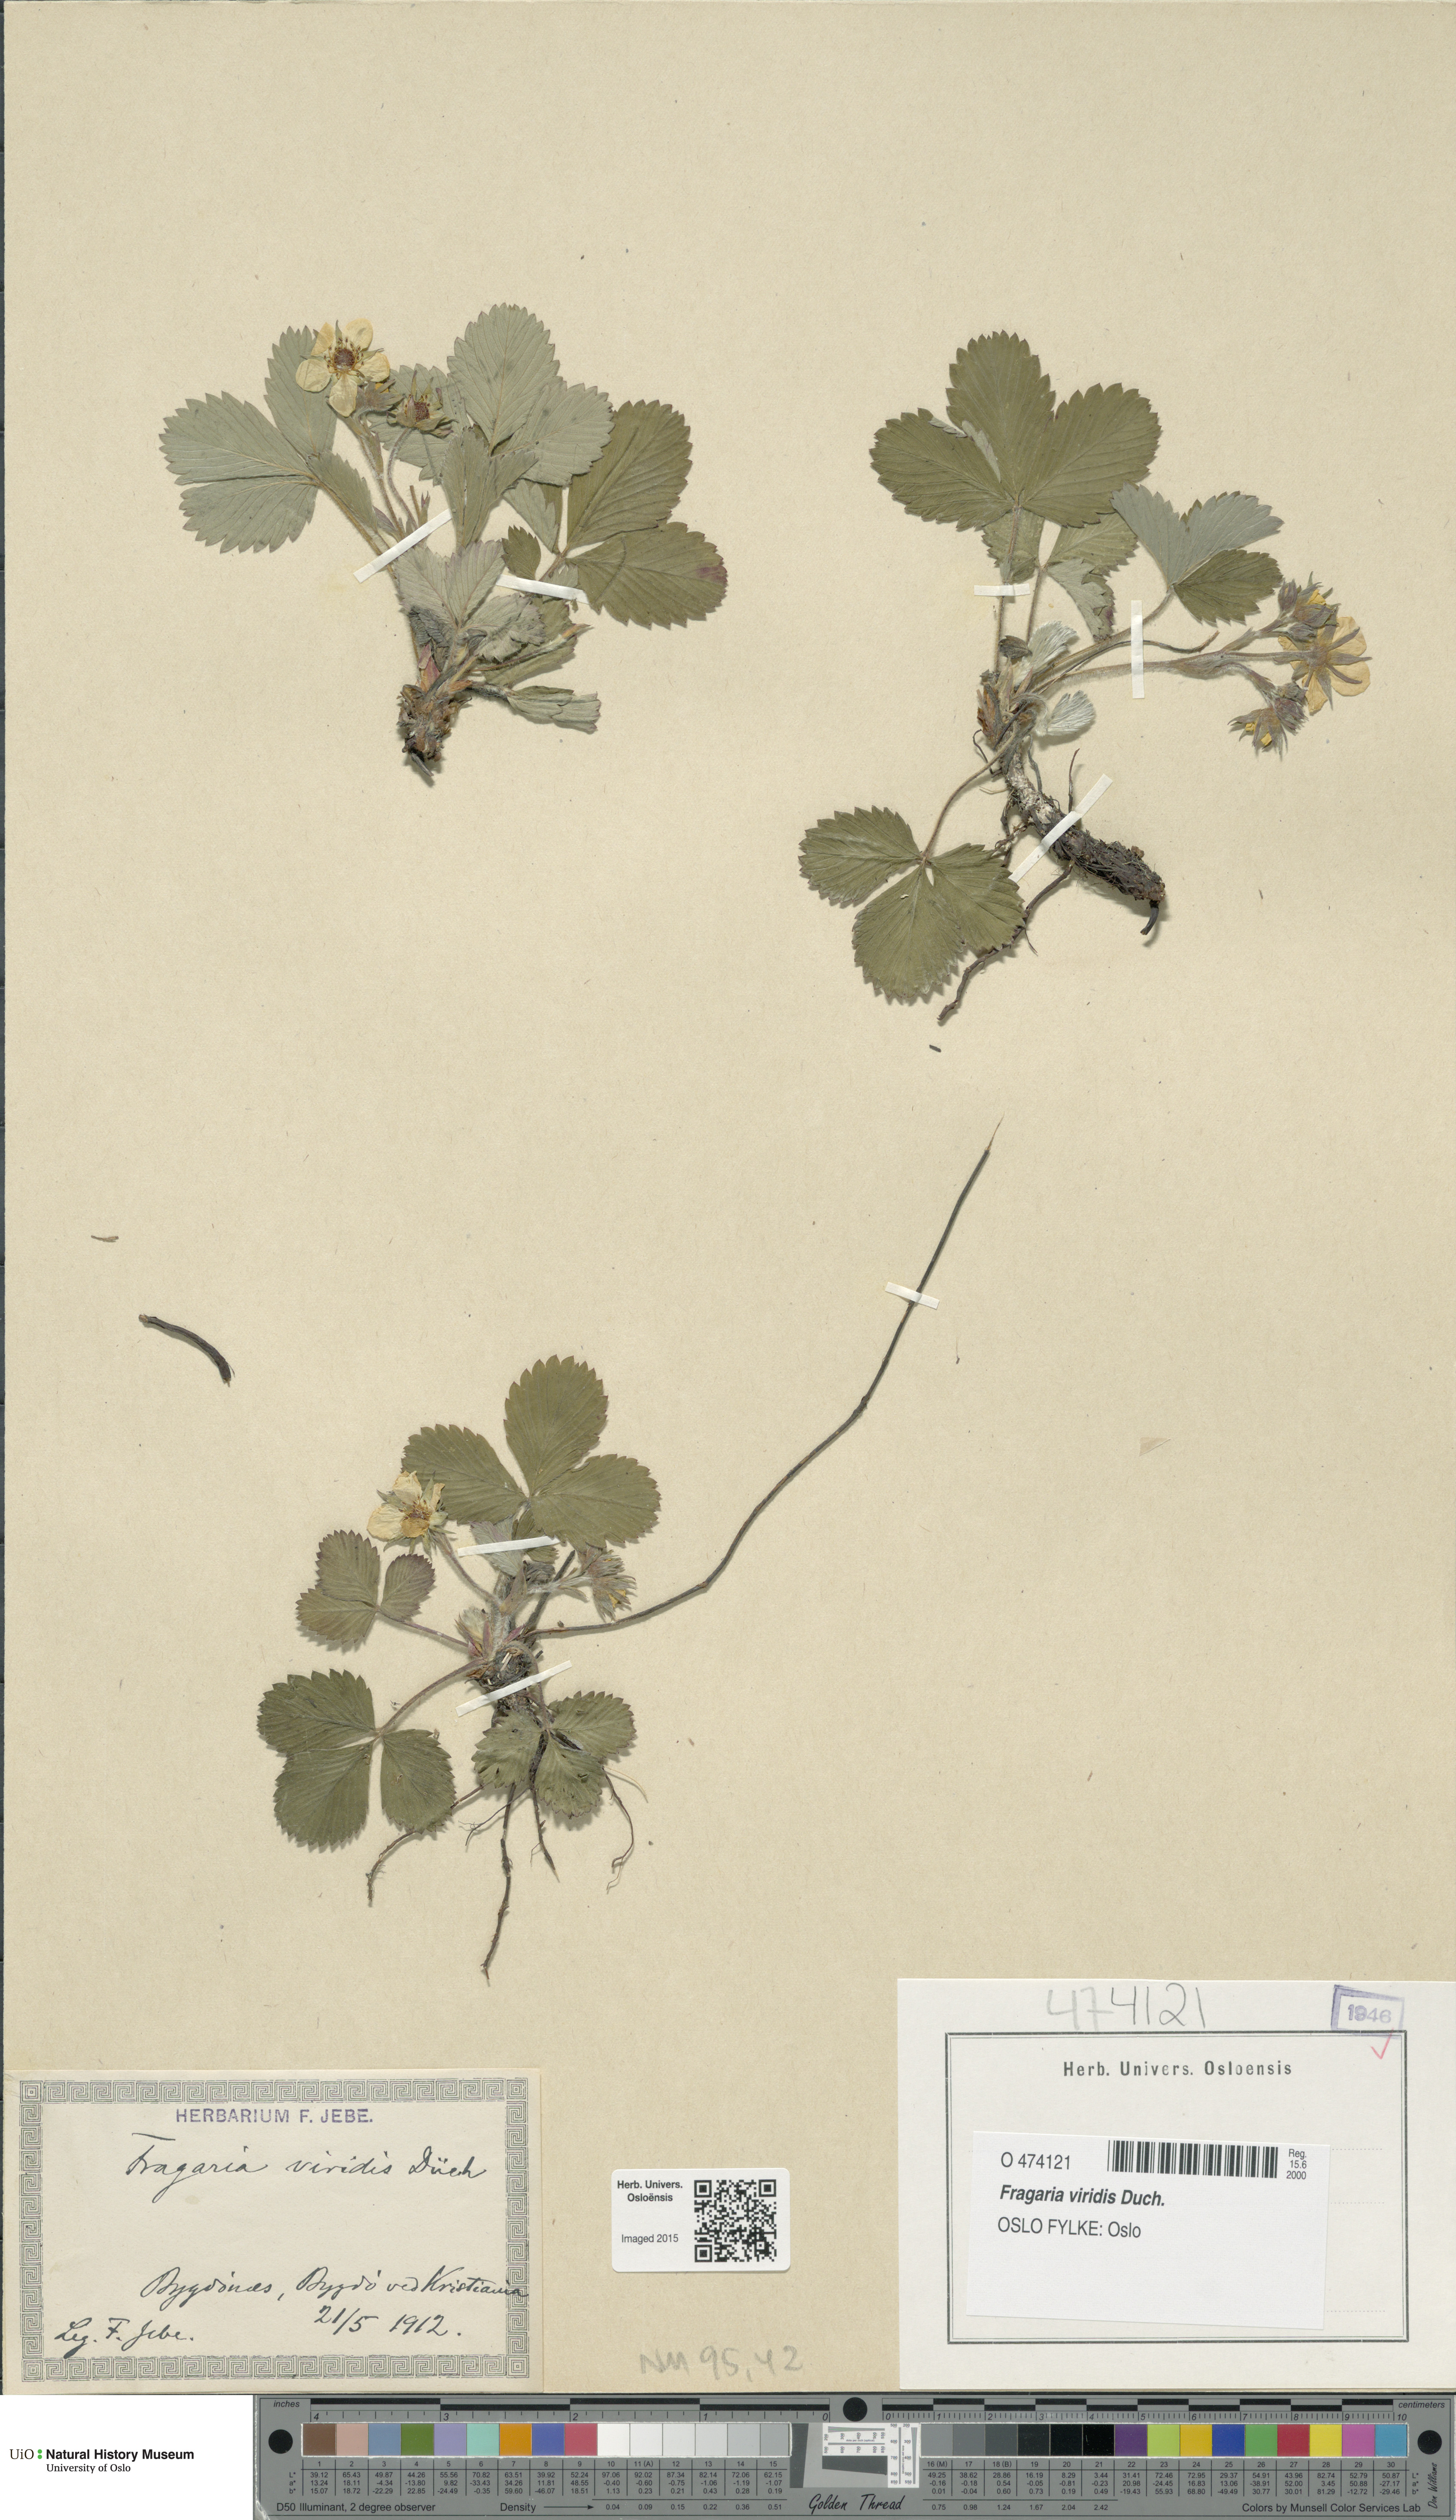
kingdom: Plantae
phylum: Tracheophyta
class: Magnoliopsida
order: Rosales
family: Rosaceae
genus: Fragaria
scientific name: Fragaria viridis
